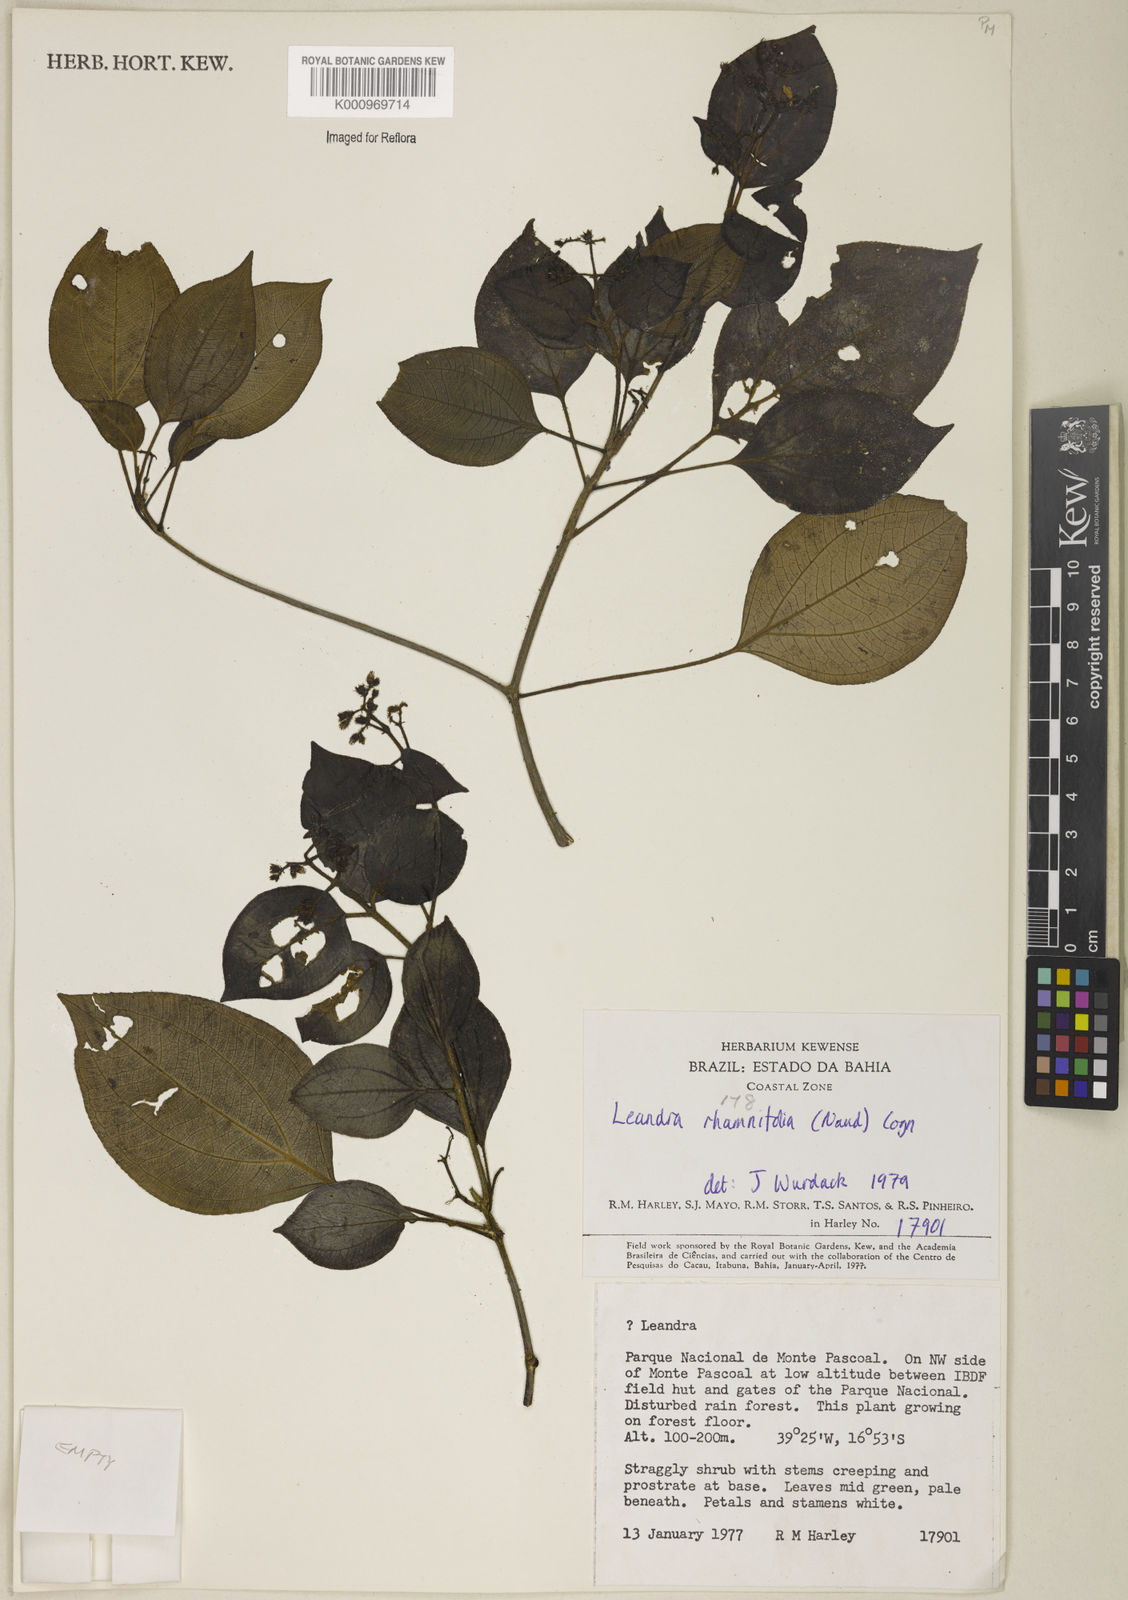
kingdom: Plantae
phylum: Tracheophyta
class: Magnoliopsida
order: Myrtales
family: Melastomataceae
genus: Miconia
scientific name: Miconia rhamnifolia
